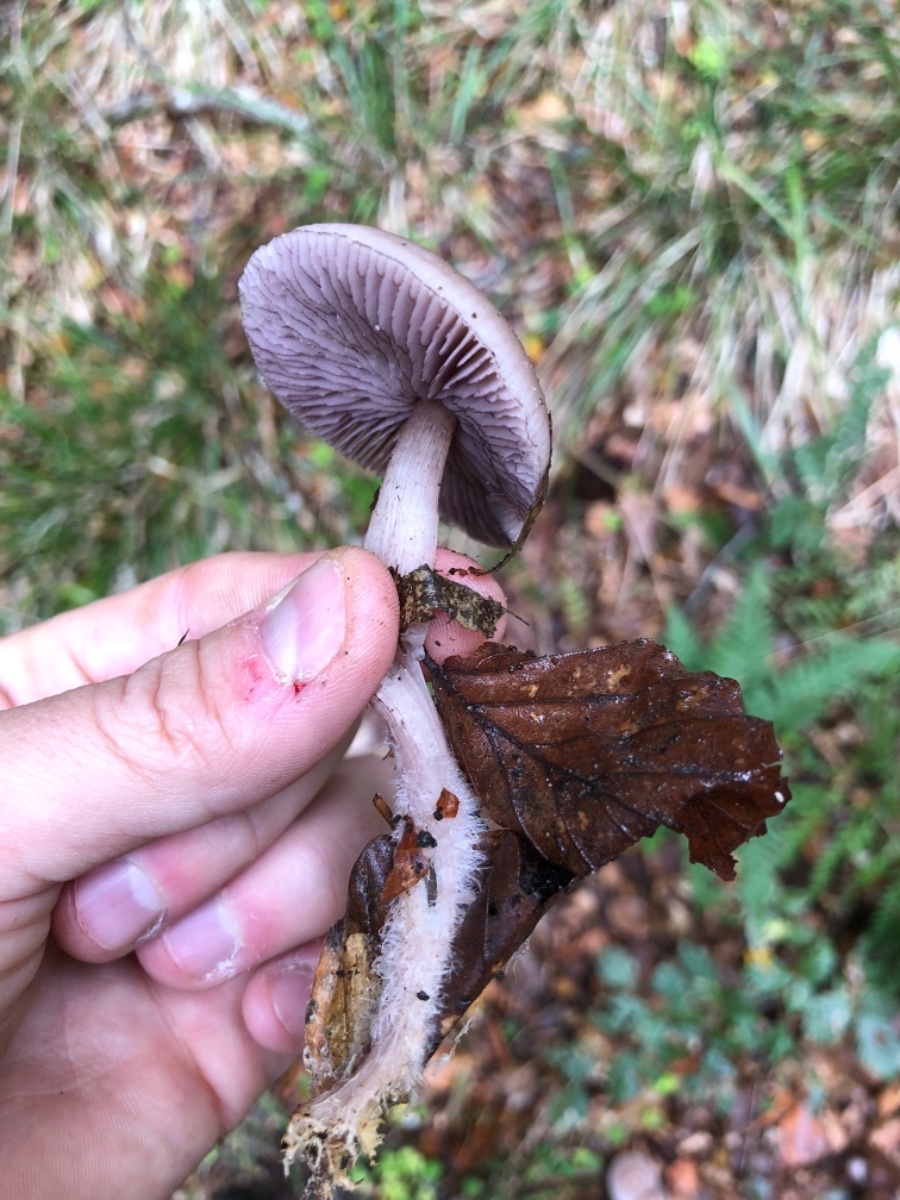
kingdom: Fungi
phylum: Basidiomycota
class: Agaricomycetes
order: Agaricales
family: Mycenaceae
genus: Mycena
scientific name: Mycena pelianthina
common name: mørkbladet huesvamp
